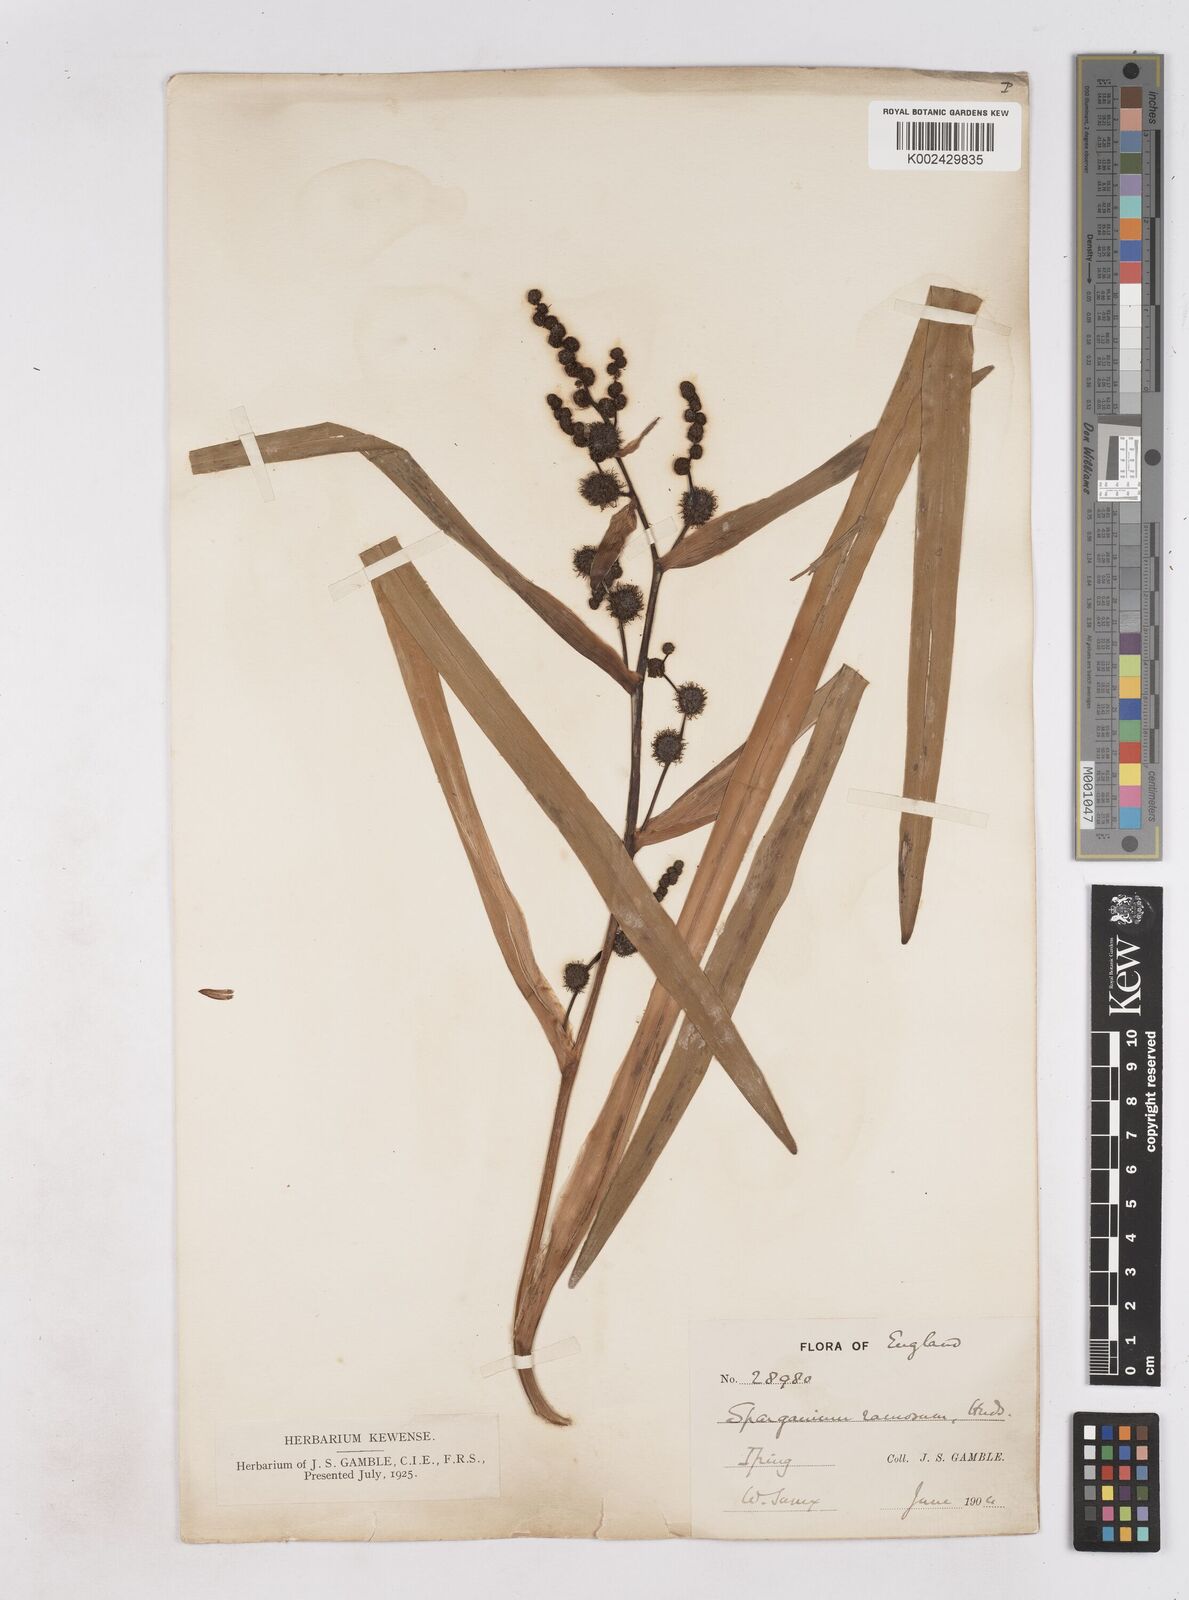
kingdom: Plantae
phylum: Tracheophyta
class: Liliopsida
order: Poales
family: Typhaceae
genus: Sparganium
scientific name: Sparganium erectum
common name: Branched bur-reed
